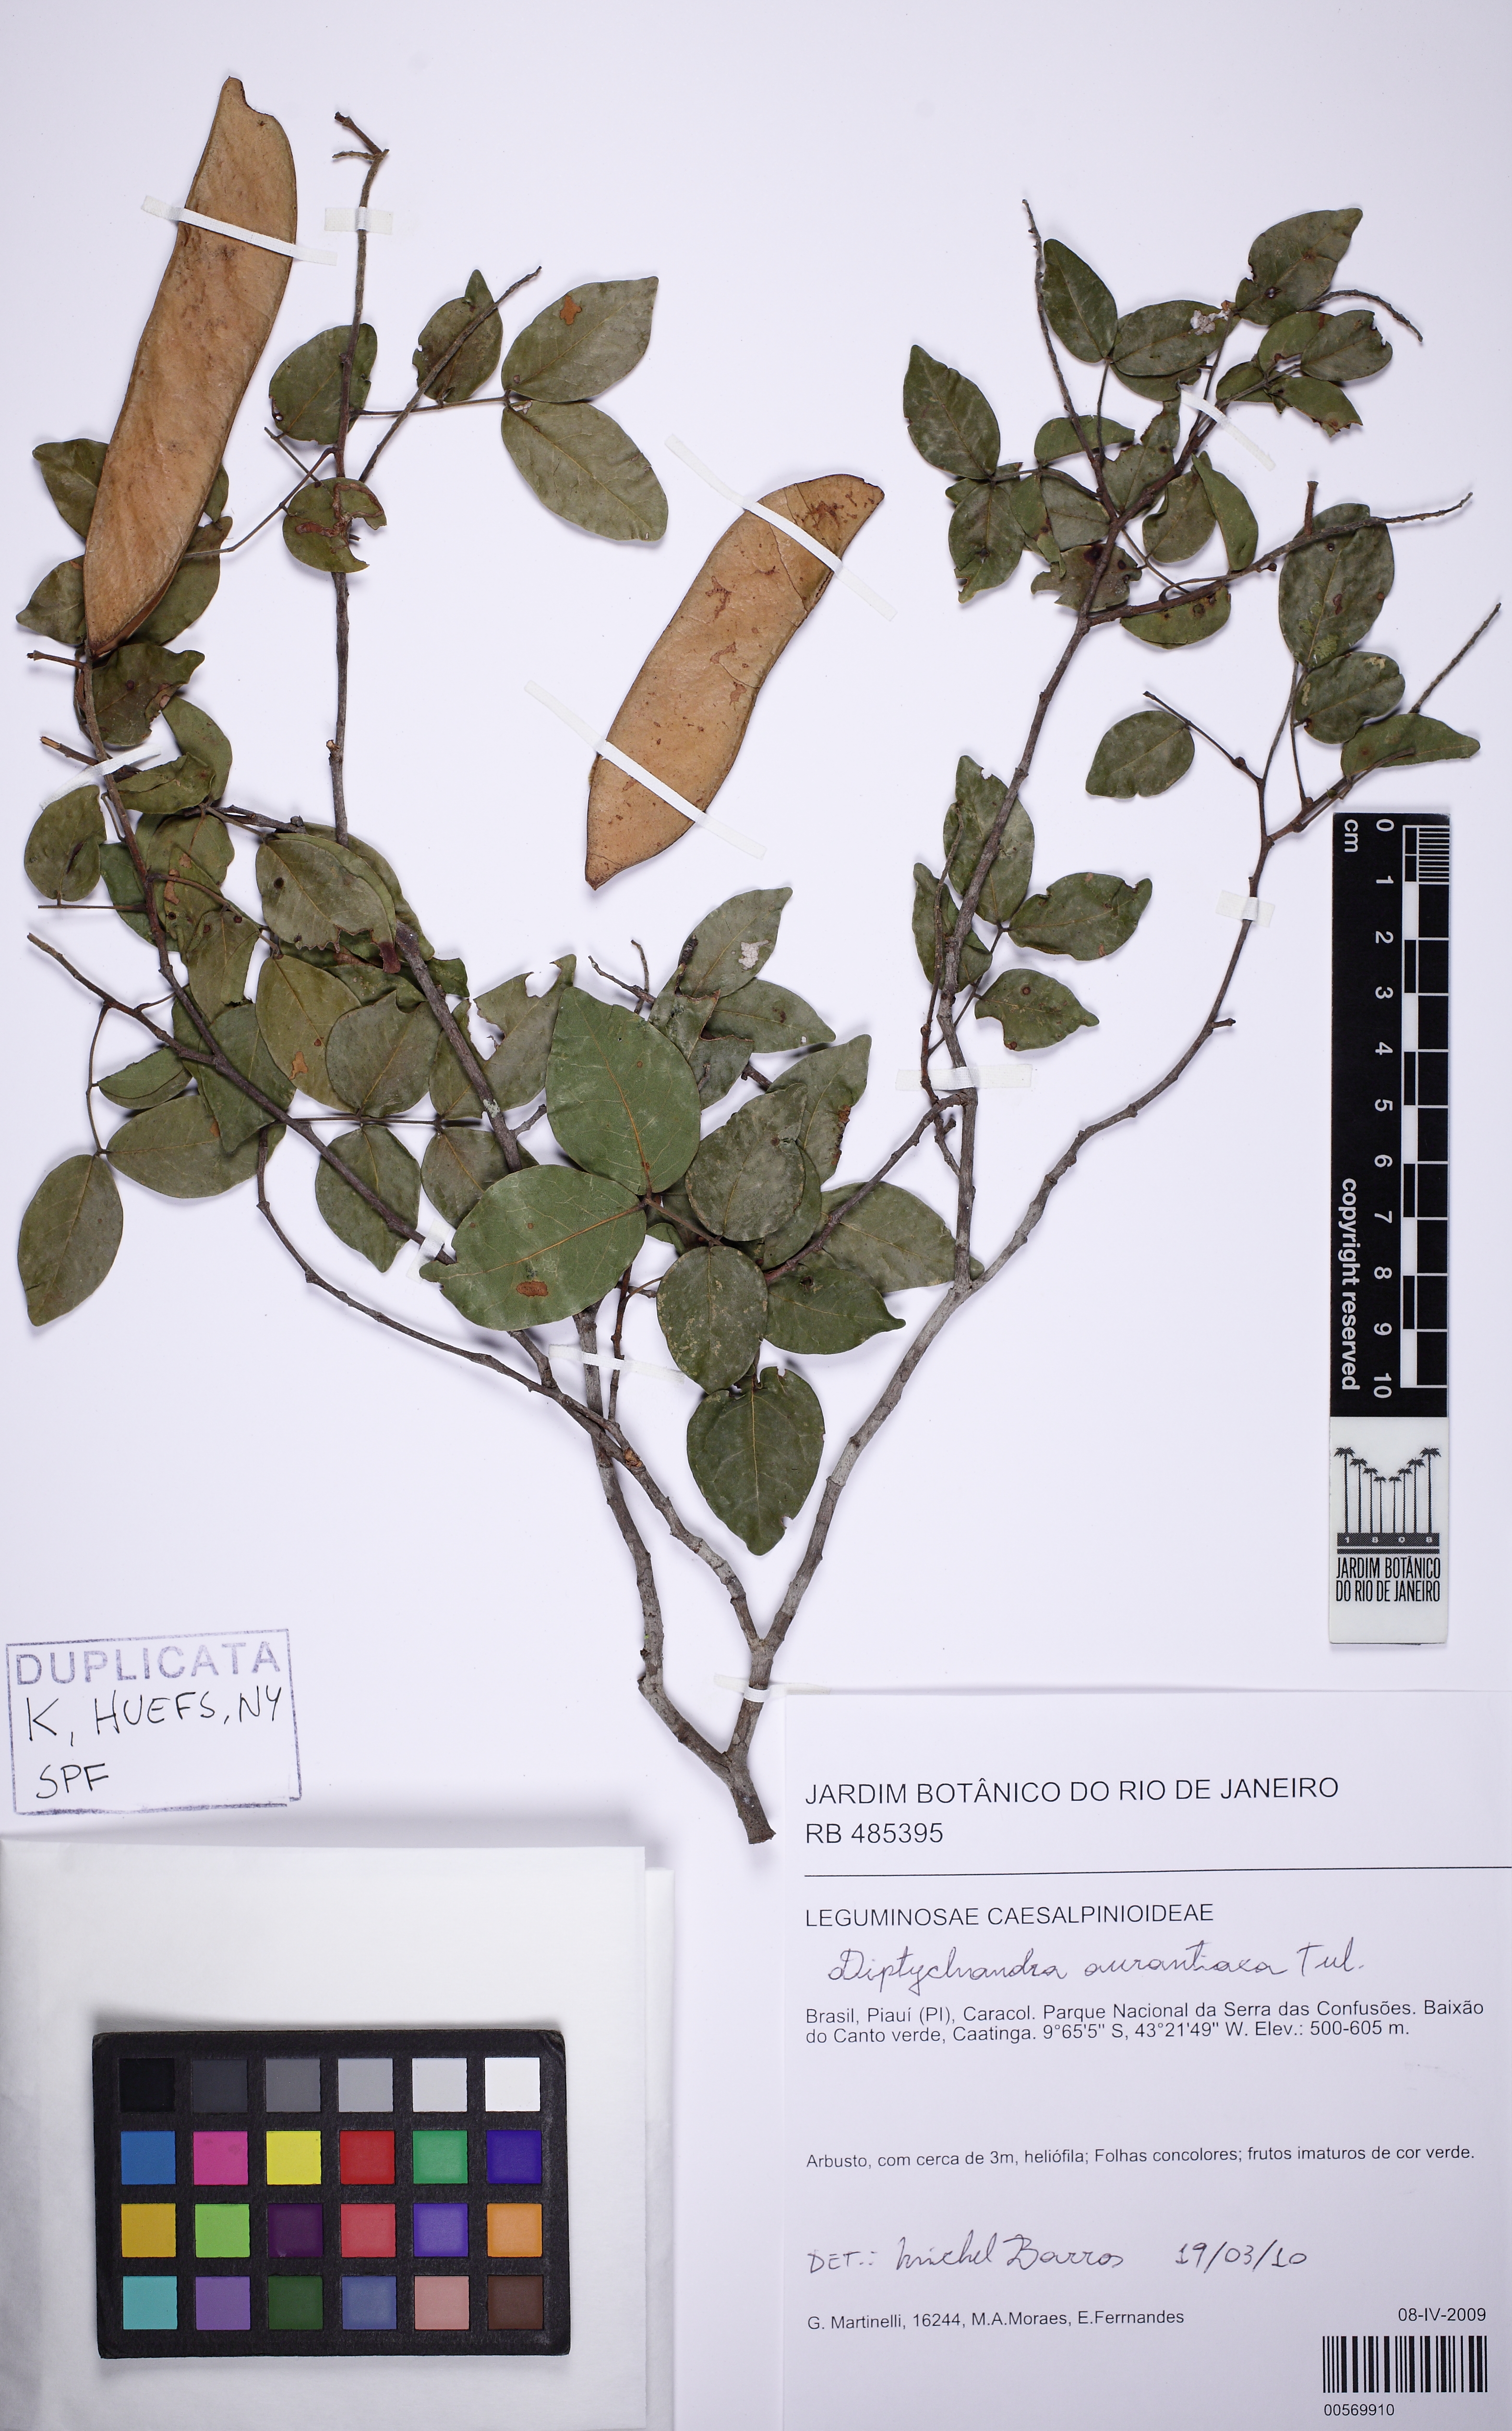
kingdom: Plantae
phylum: Tracheophyta
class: Magnoliopsida
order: Fabales
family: Fabaceae
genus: Diptychandra
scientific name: Diptychandra aurantiaca
